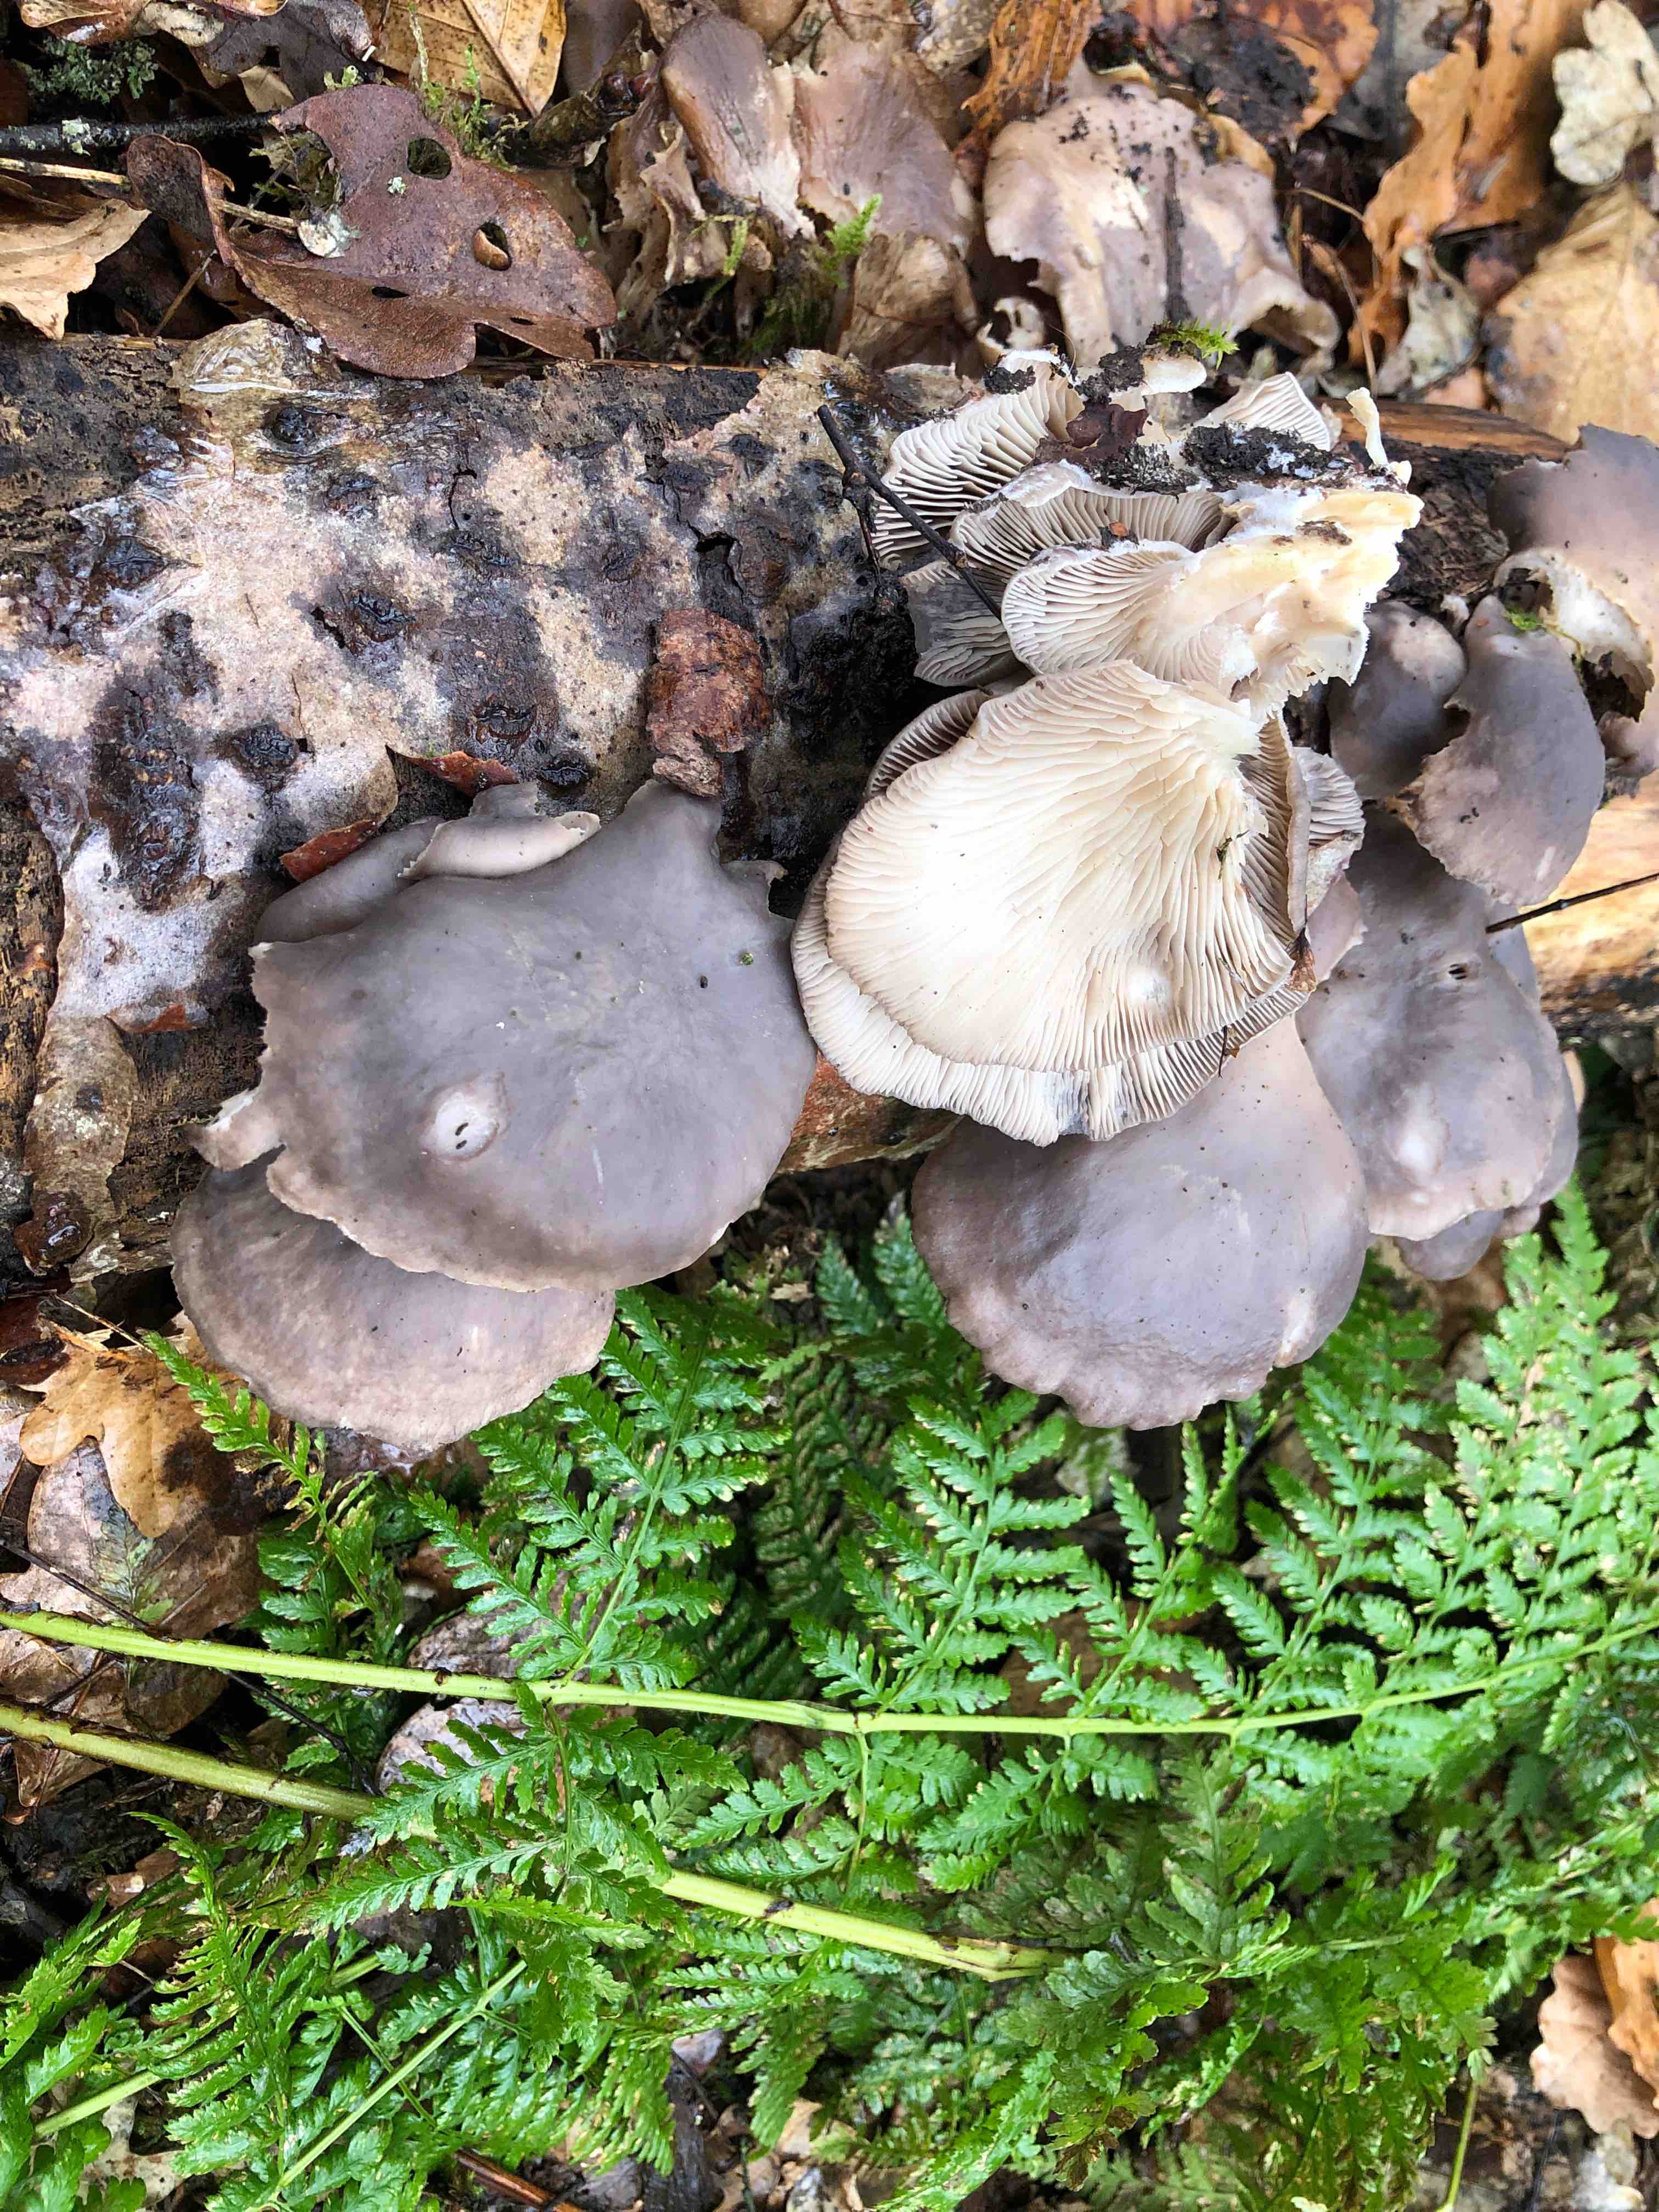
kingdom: Fungi
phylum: Basidiomycota
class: Agaricomycetes
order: Agaricales
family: Pleurotaceae
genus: Pleurotus
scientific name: Pleurotus ostreatus
